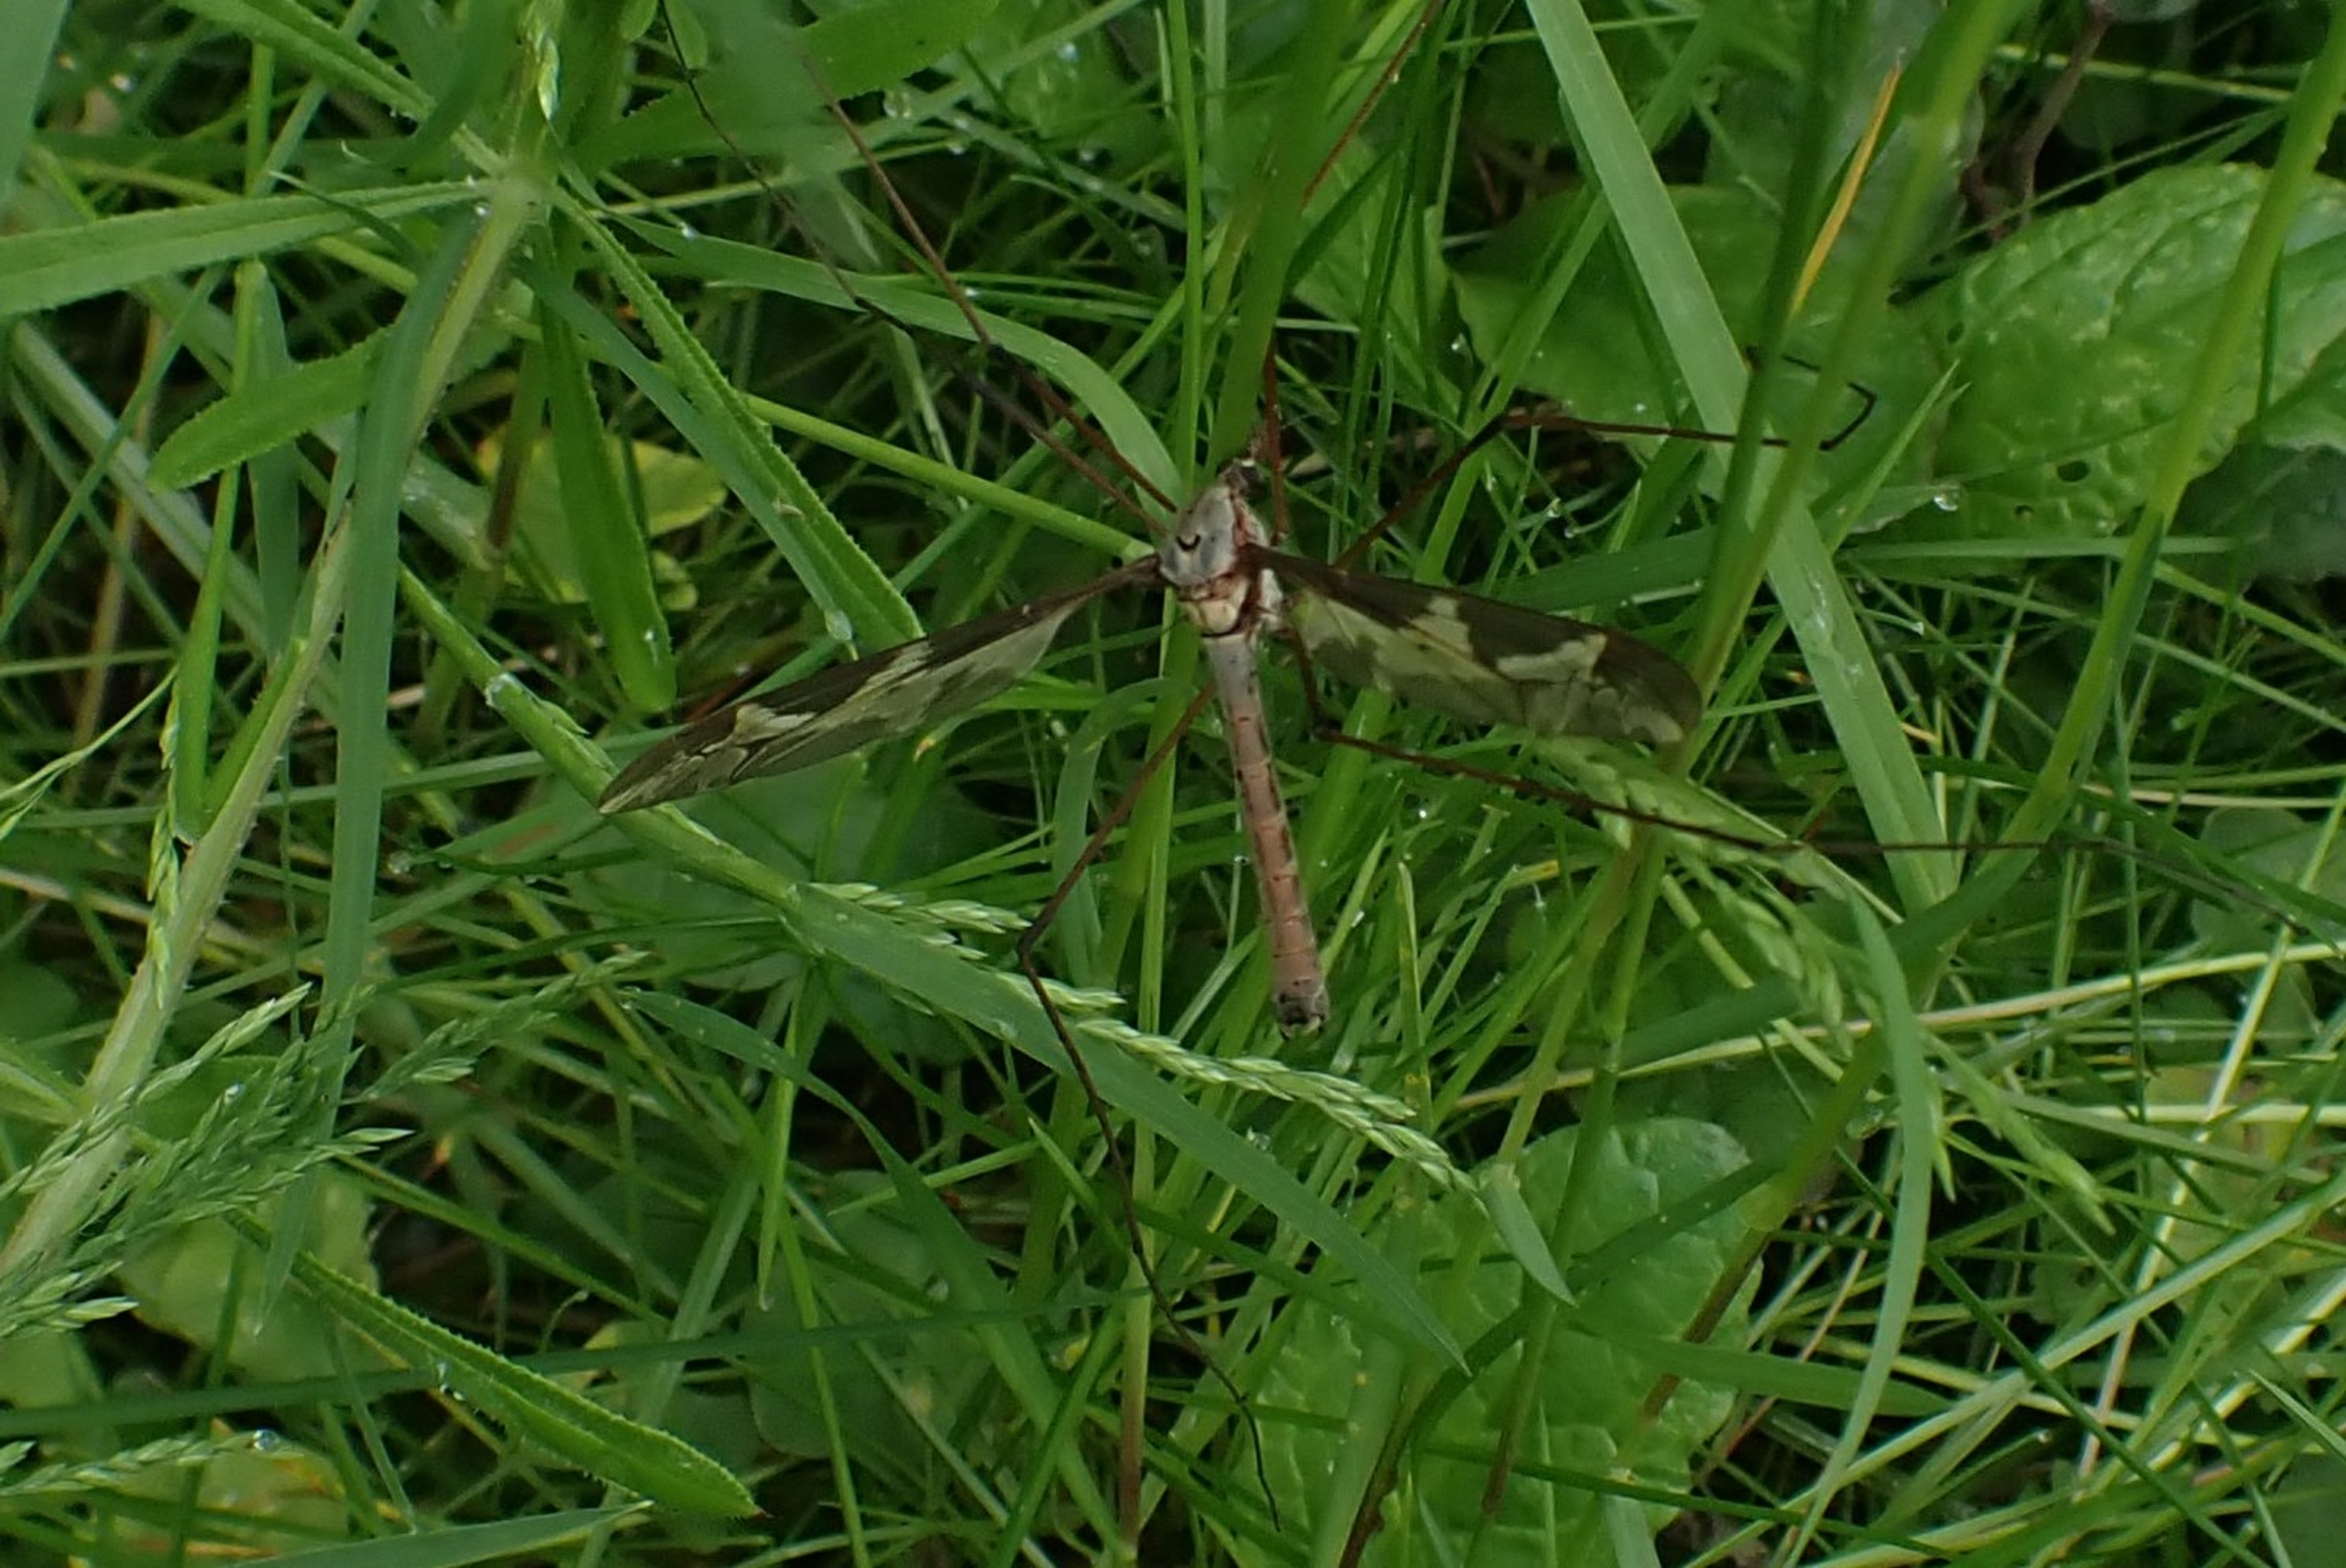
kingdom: Animalia
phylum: Arthropoda
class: Insecta
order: Diptera
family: Tipulidae
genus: Tipula
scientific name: Tipula maxima
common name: Kæmpestankelben
